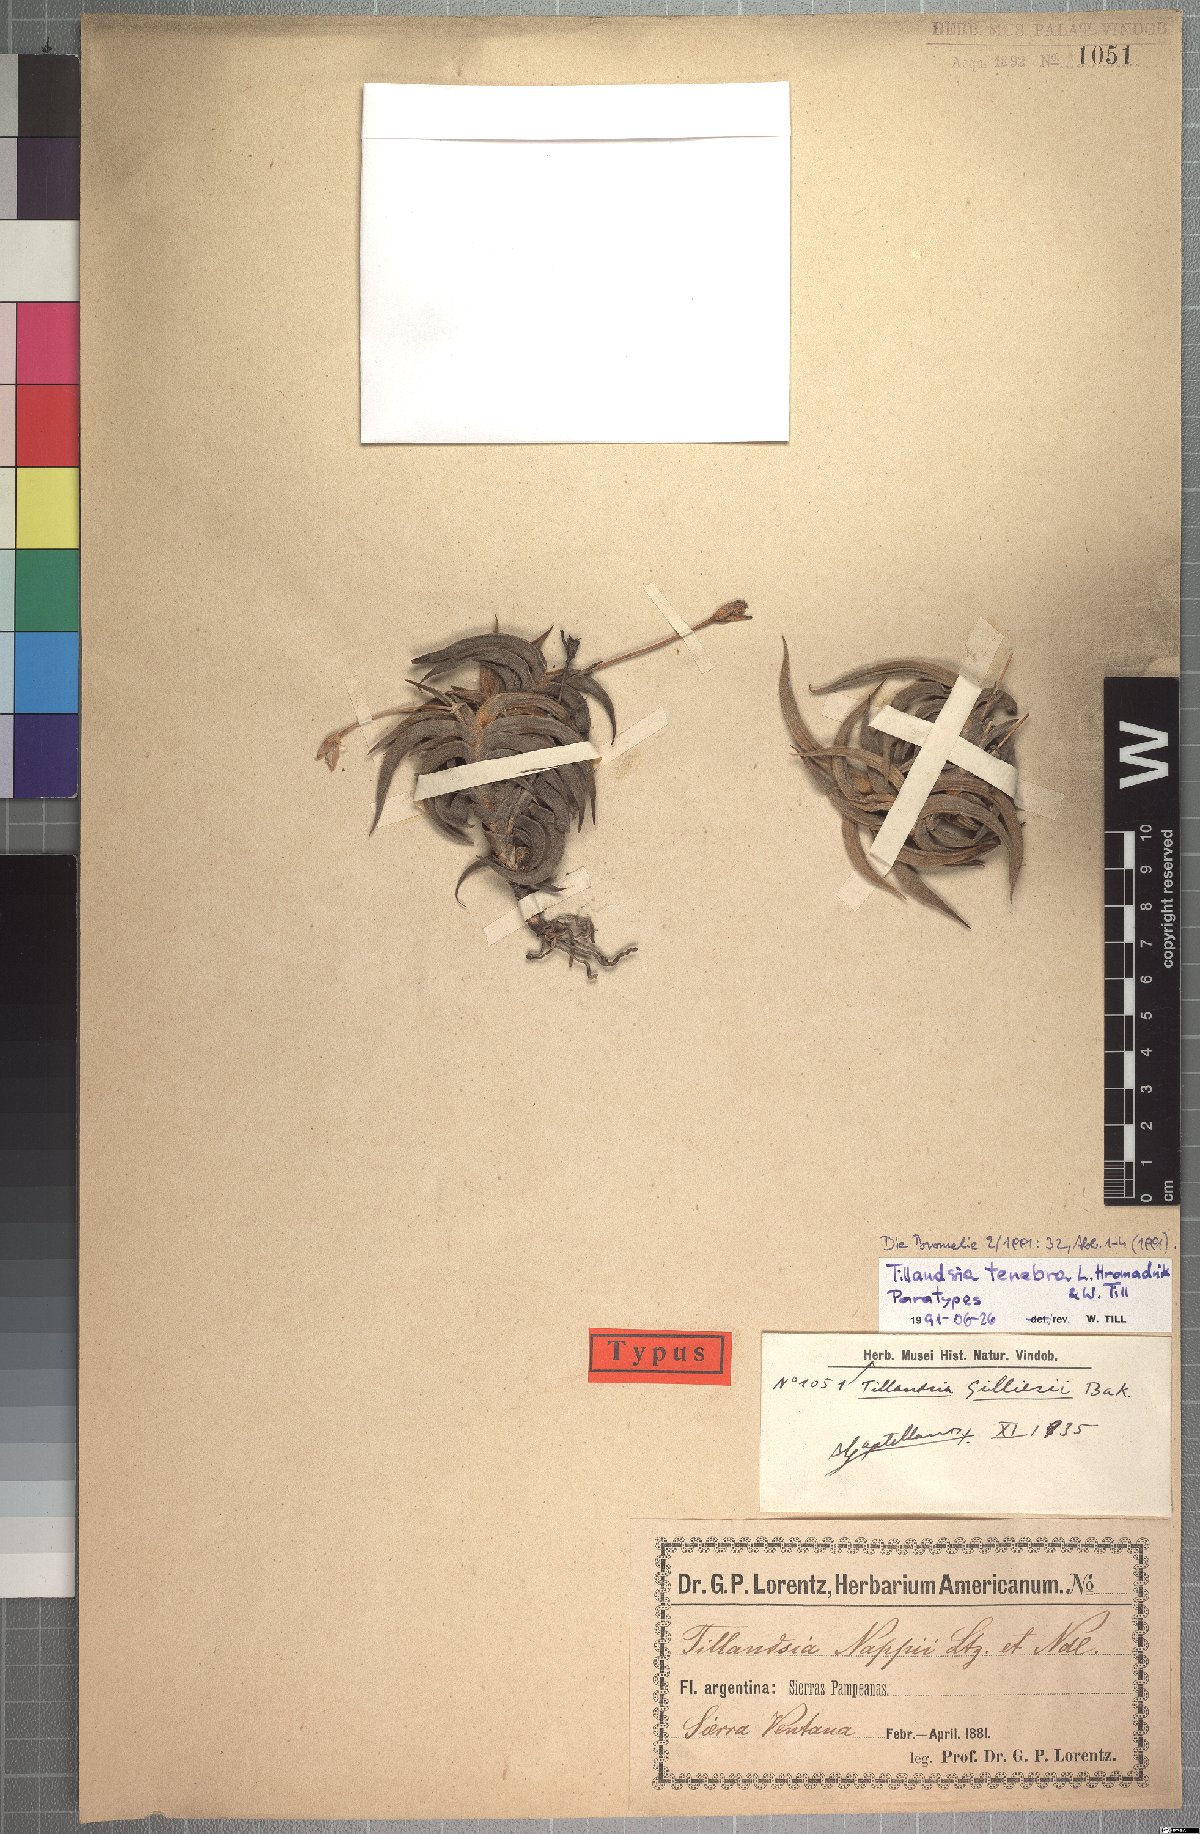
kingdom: Plantae
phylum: Tracheophyta
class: Liliopsida
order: Poales
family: Bromeliaceae
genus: Tillandsia
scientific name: Tillandsia tenebra
